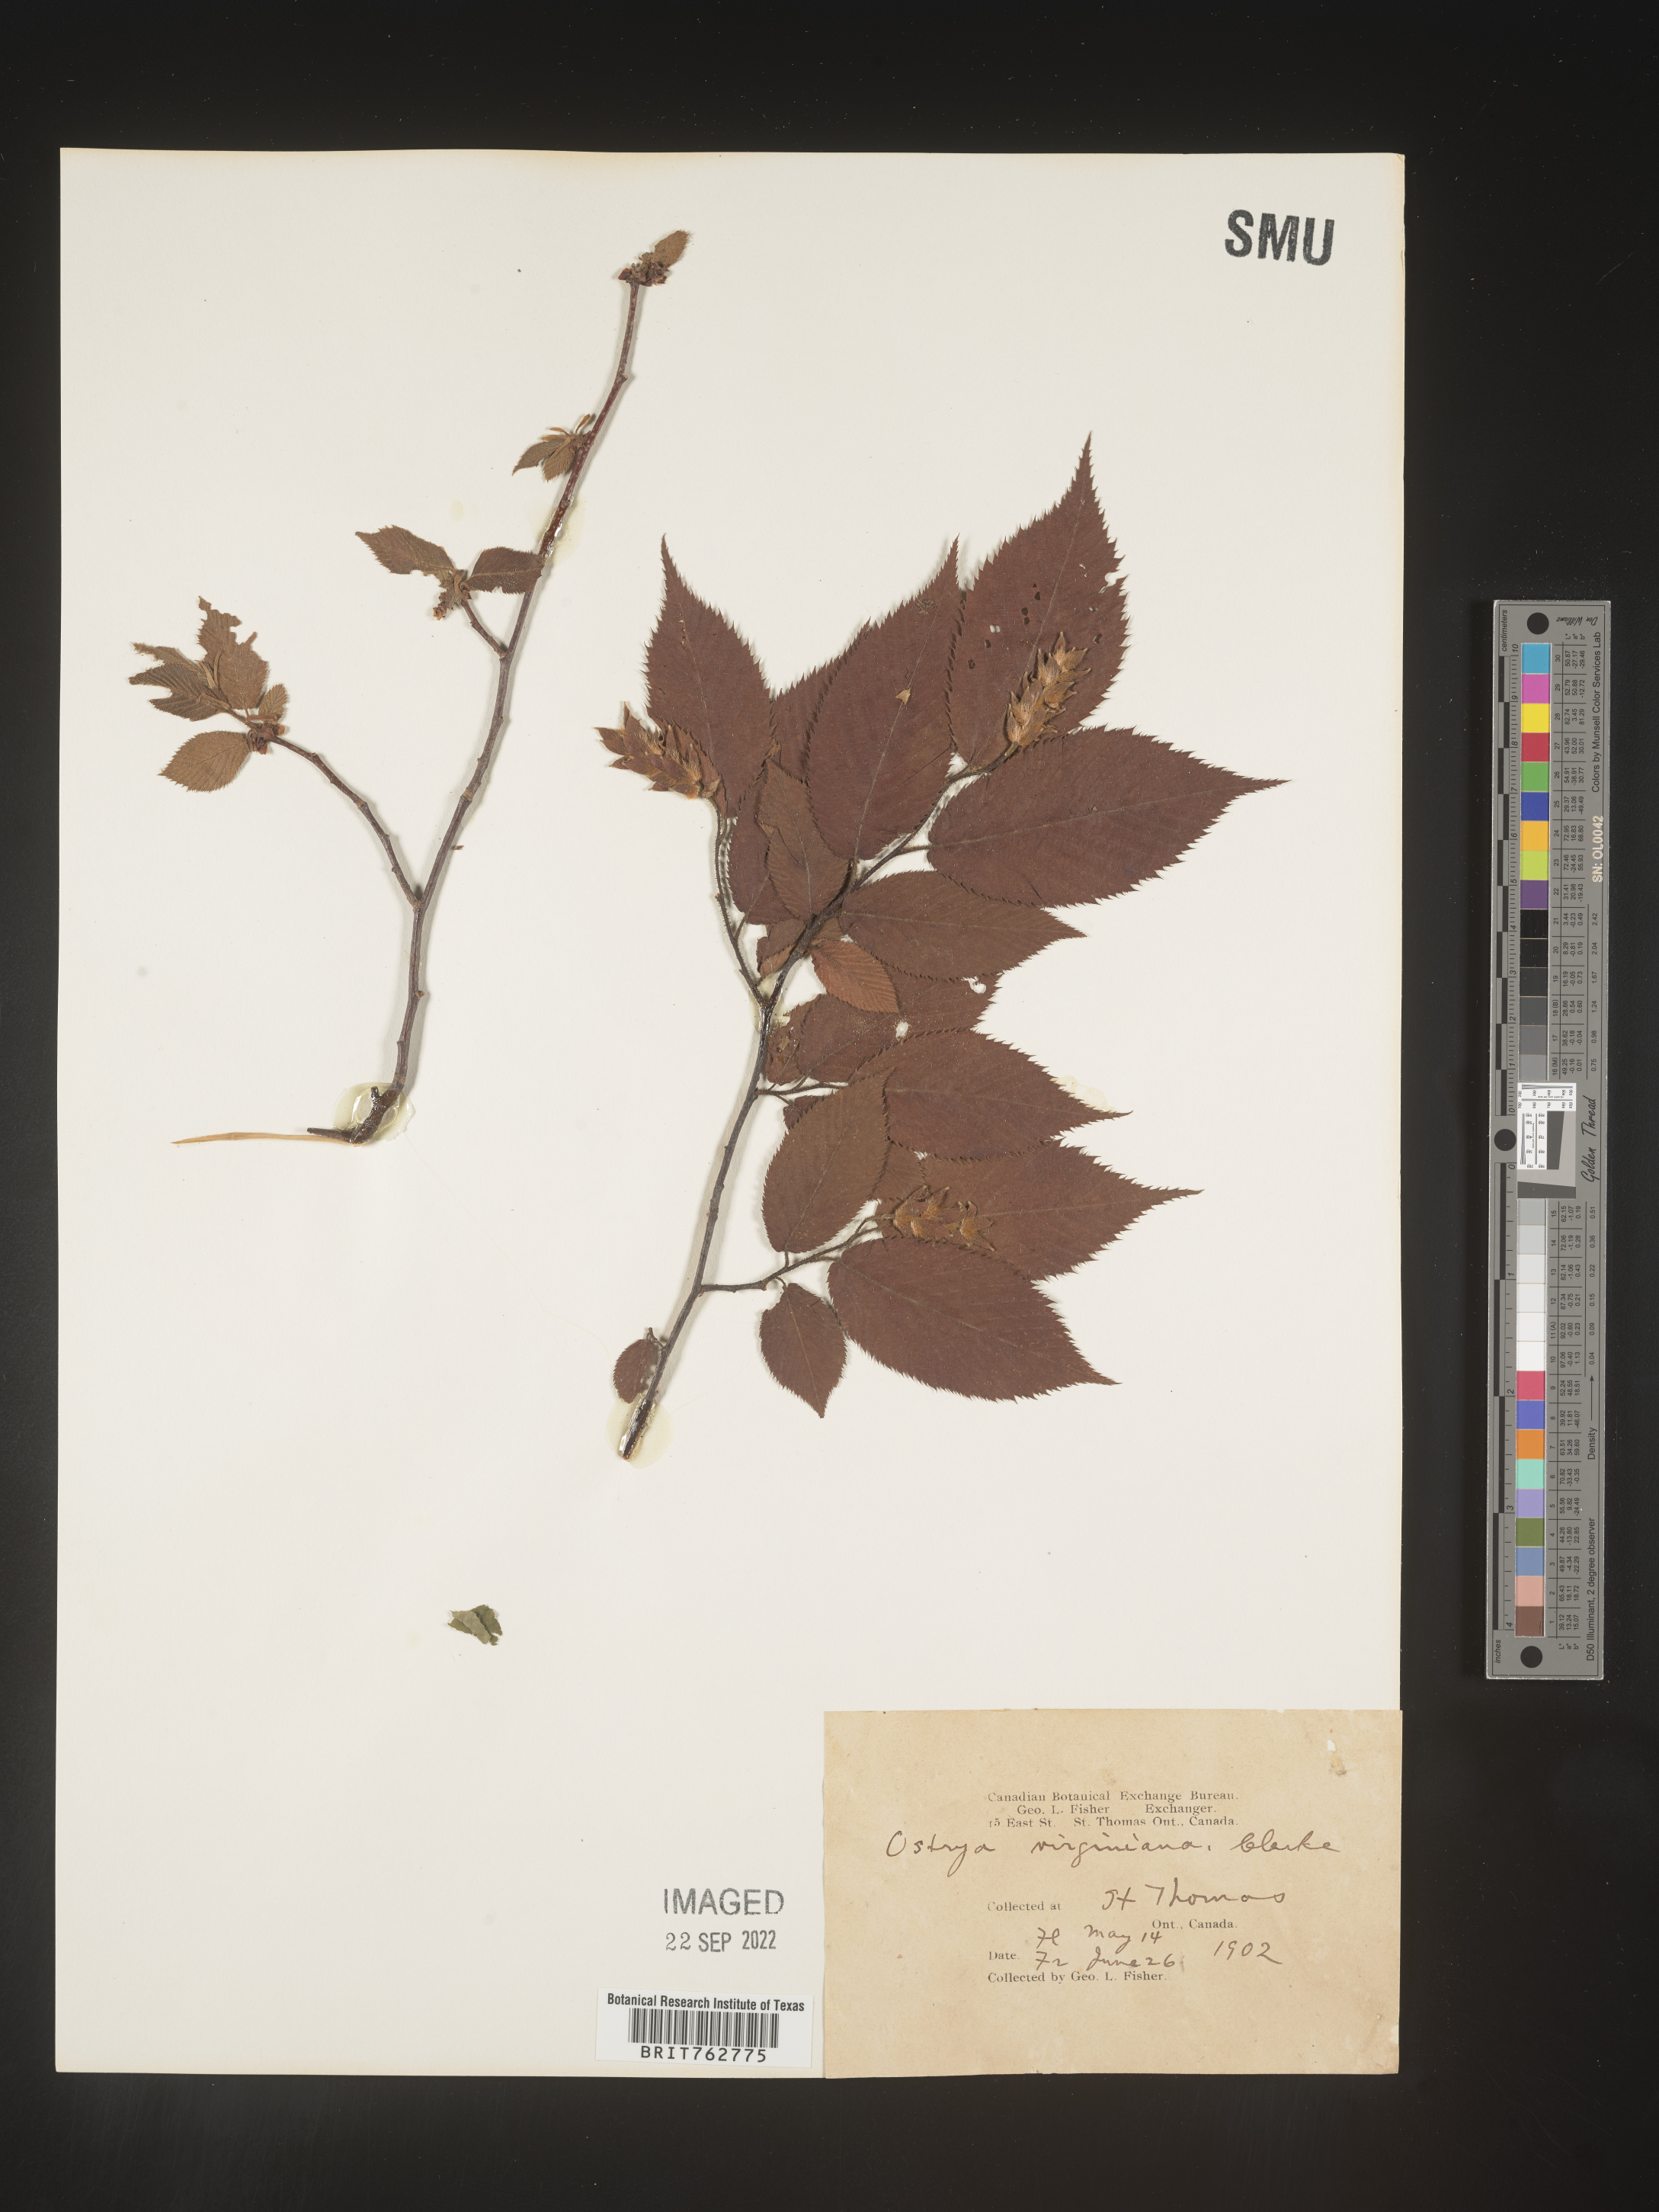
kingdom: Plantae
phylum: Tracheophyta
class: Magnoliopsida
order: Fagales
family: Betulaceae
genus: Ostrya
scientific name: Ostrya virginiana
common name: Ironwood
